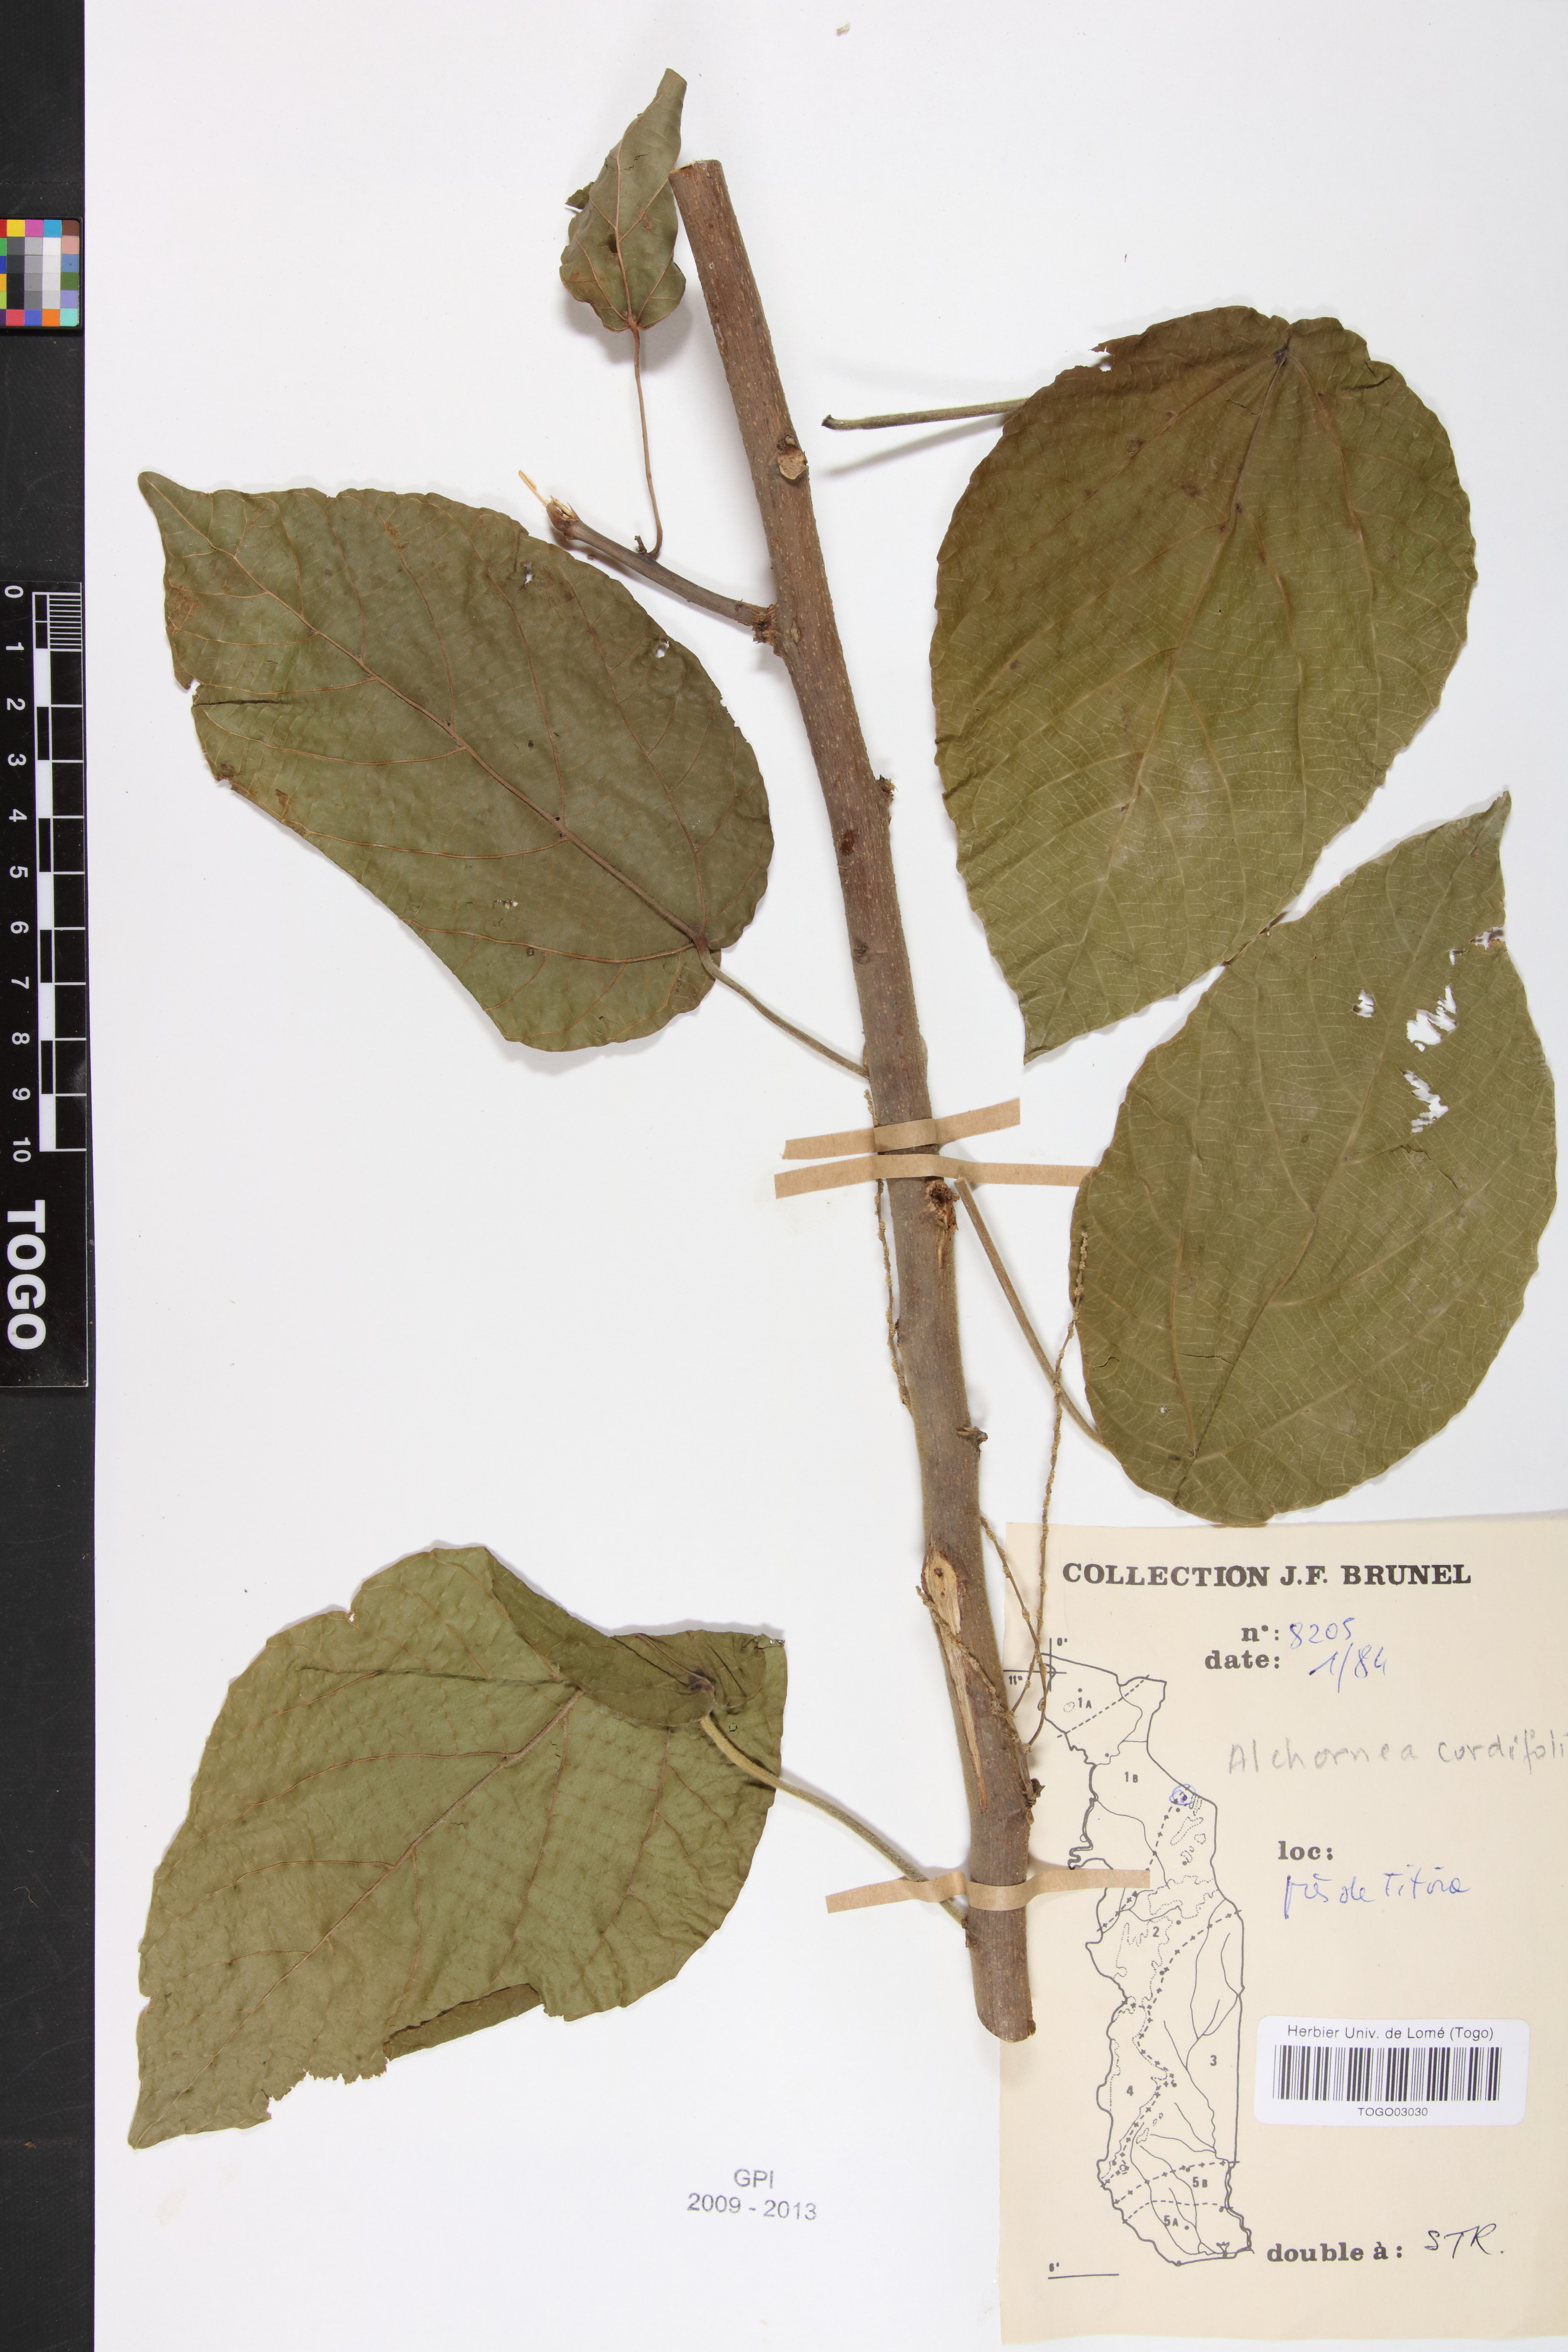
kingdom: Plantae
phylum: Tracheophyta
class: Magnoliopsida
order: Malpighiales
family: Euphorbiaceae
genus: Alchornea
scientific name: Alchornea cordifolia
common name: Christmasbush
